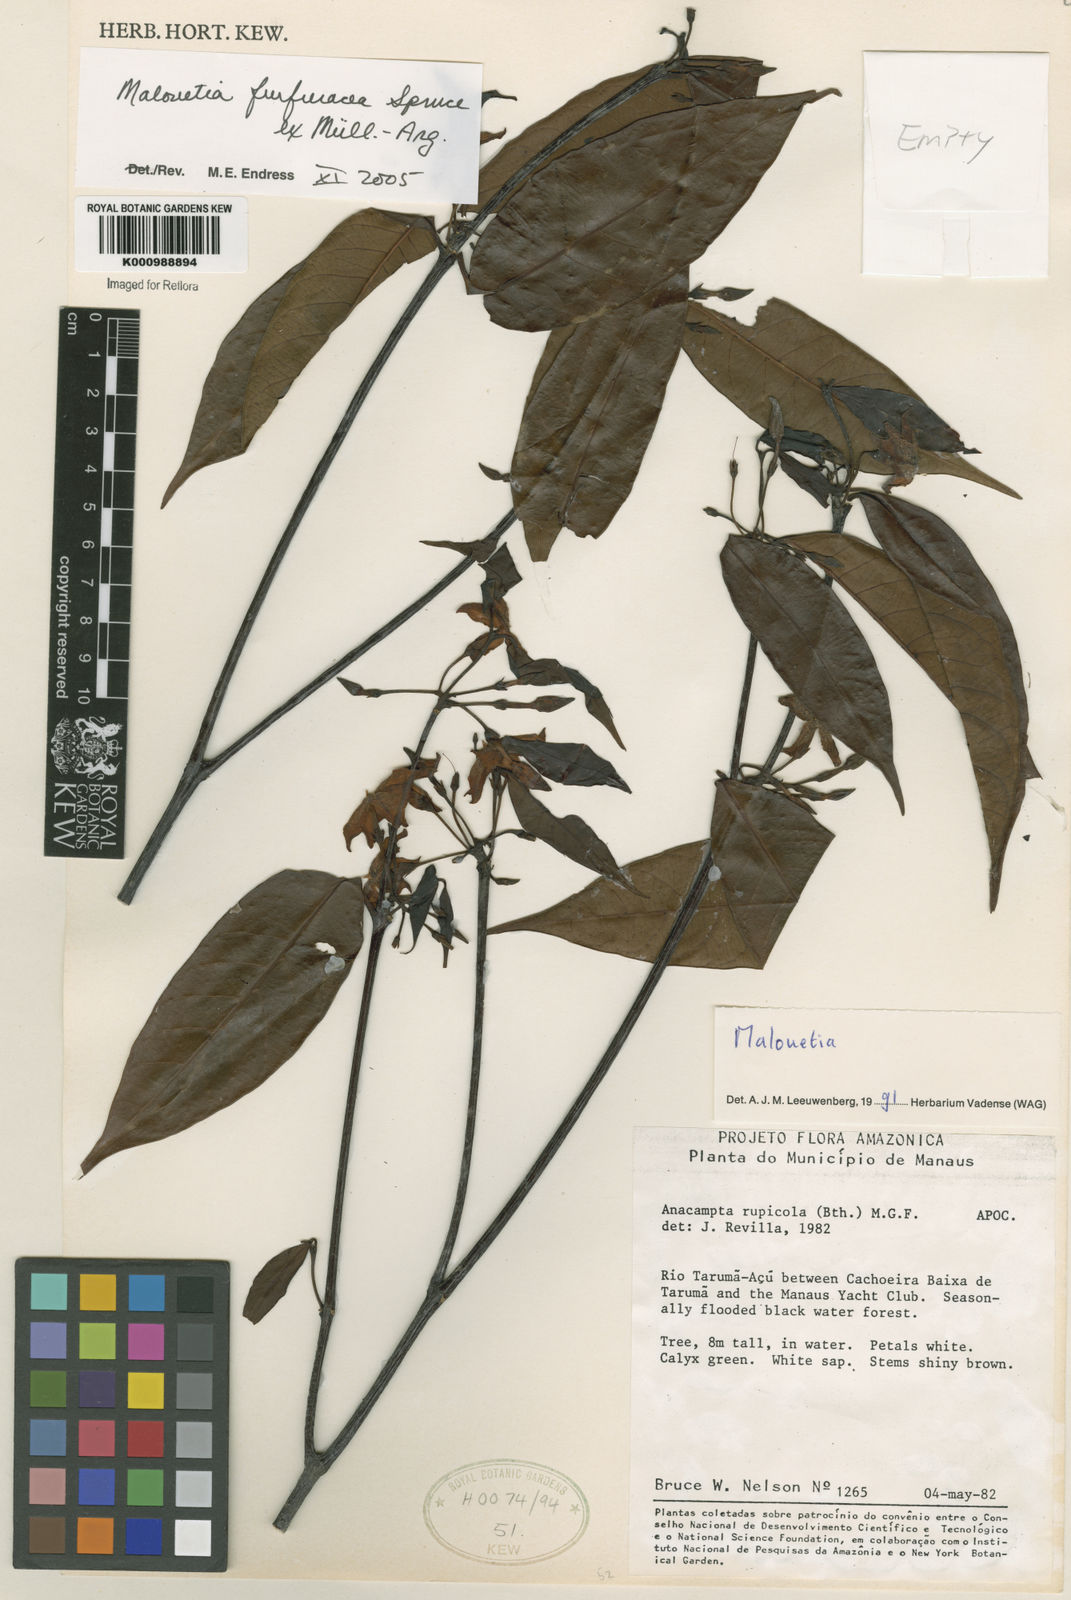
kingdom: Plantae
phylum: Tracheophyta
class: Magnoliopsida
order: Gentianales
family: Apocynaceae
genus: Malouetia
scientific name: Malouetia
